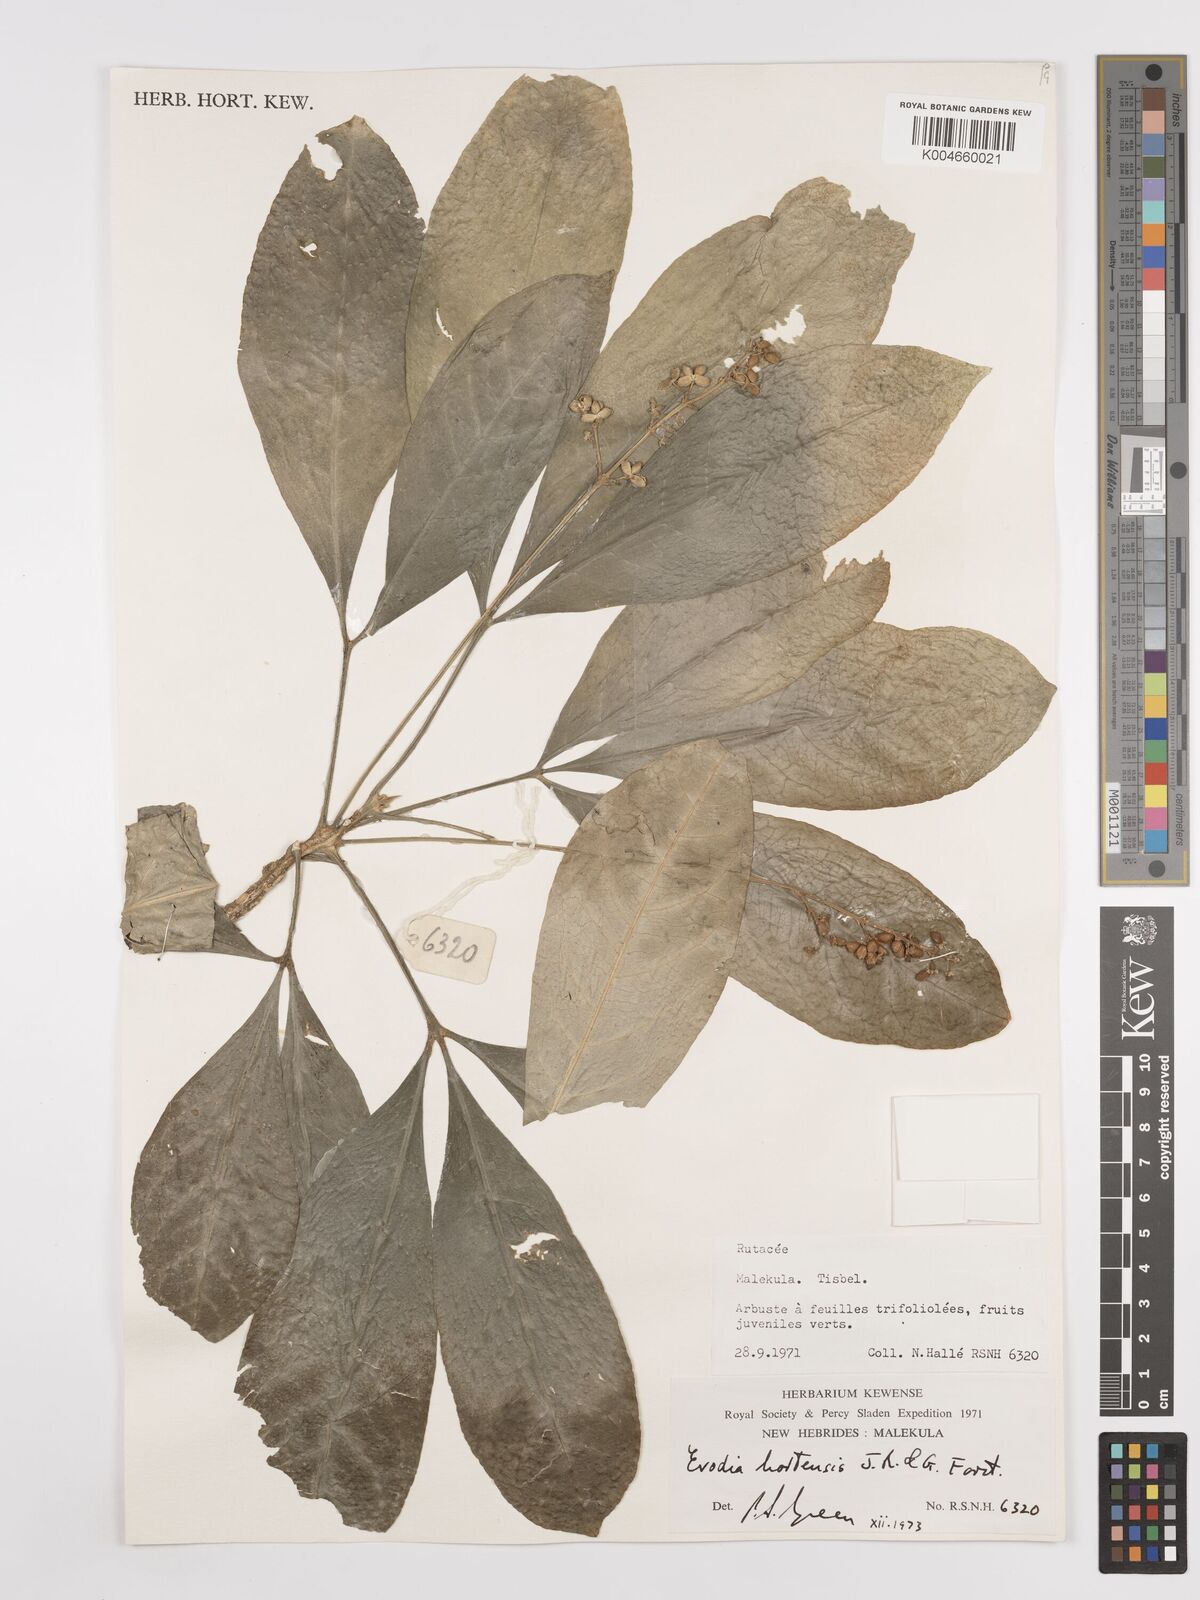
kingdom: Plantae
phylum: Tracheophyta
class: Magnoliopsida
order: Sapindales
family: Rutaceae
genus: Euodia
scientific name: Euodia hortensis
